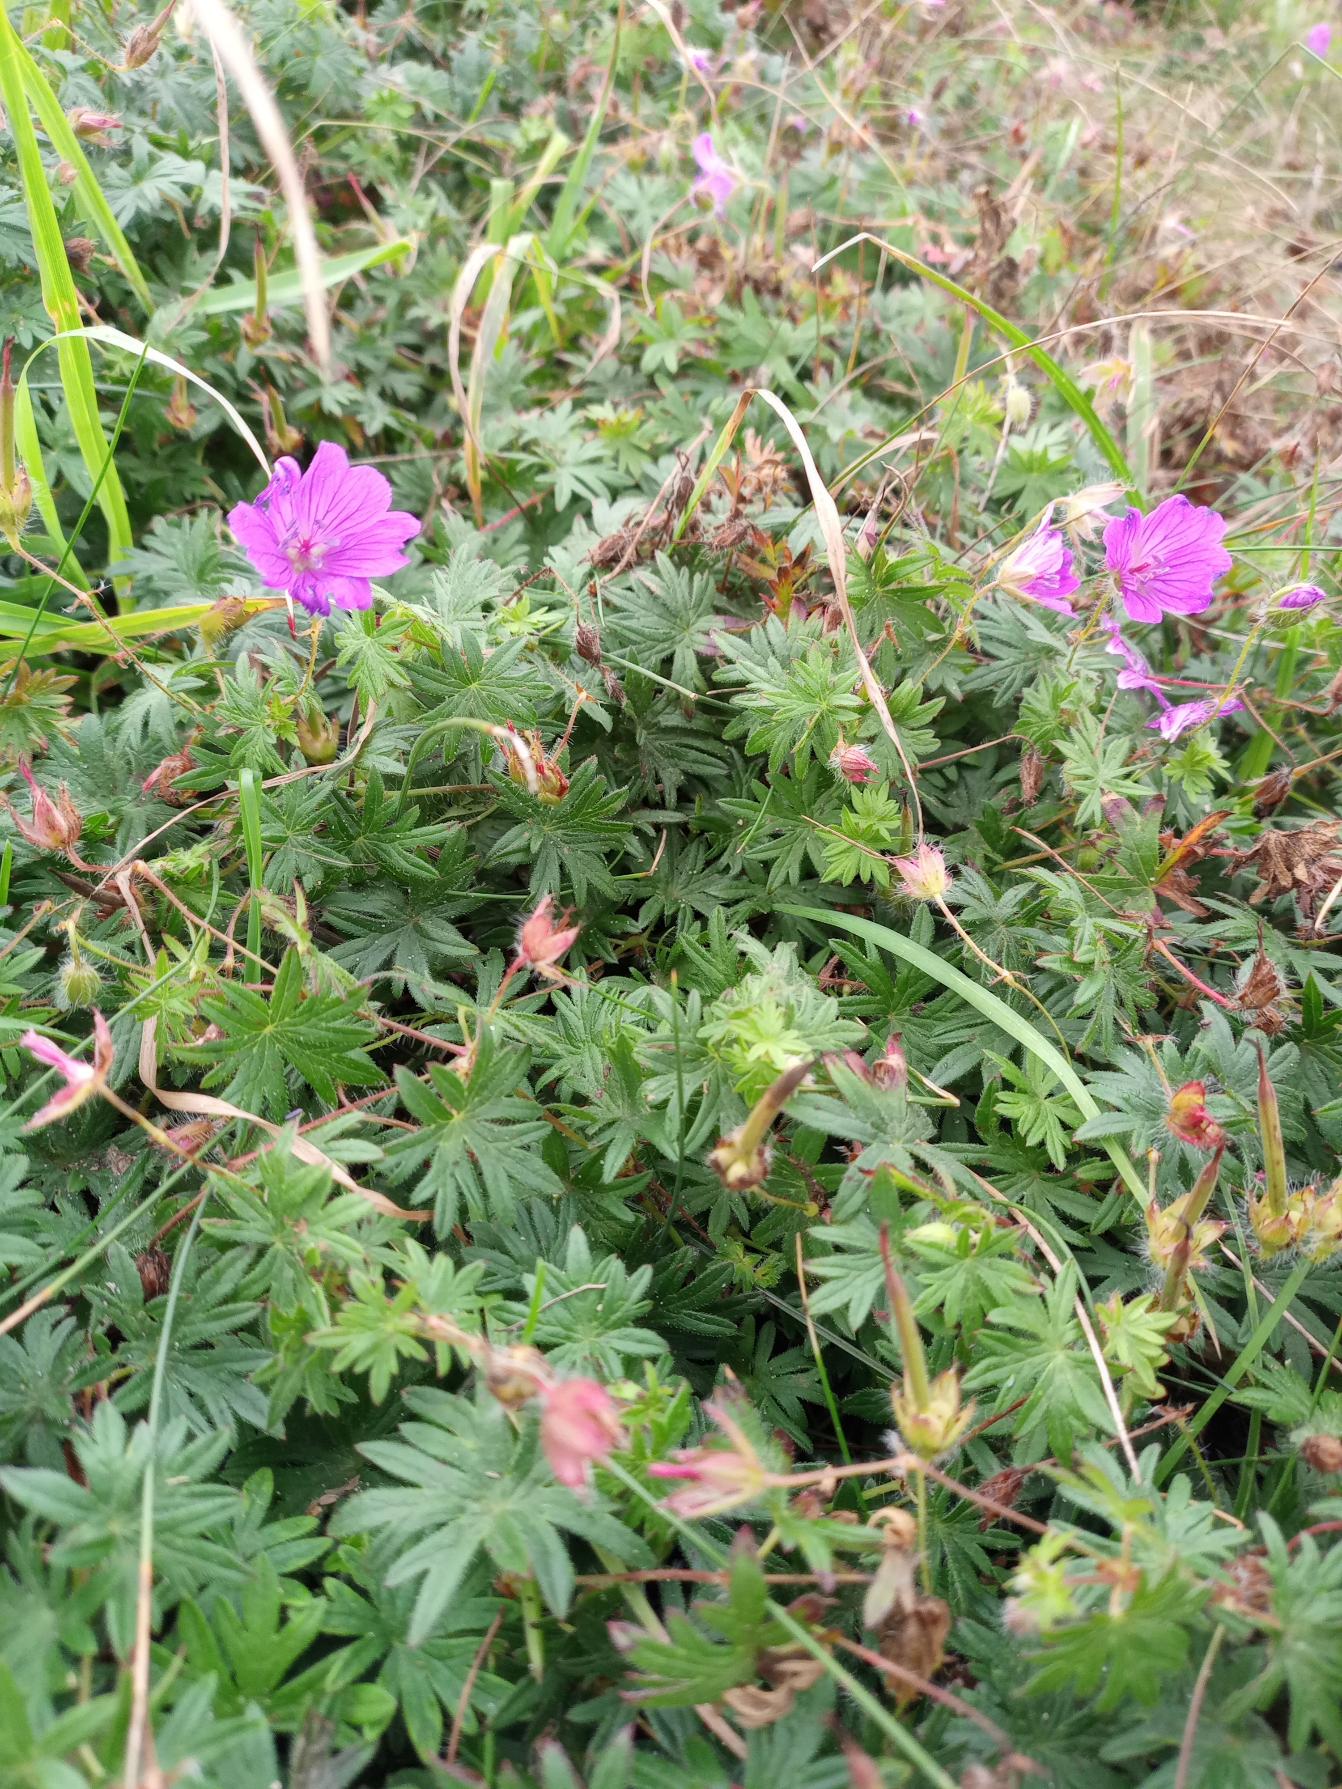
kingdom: Plantae
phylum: Tracheophyta
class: Magnoliopsida
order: Geraniales
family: Geraniaceae
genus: Geranium
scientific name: Geranium sanguineum
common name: Blodrød storkenæb
